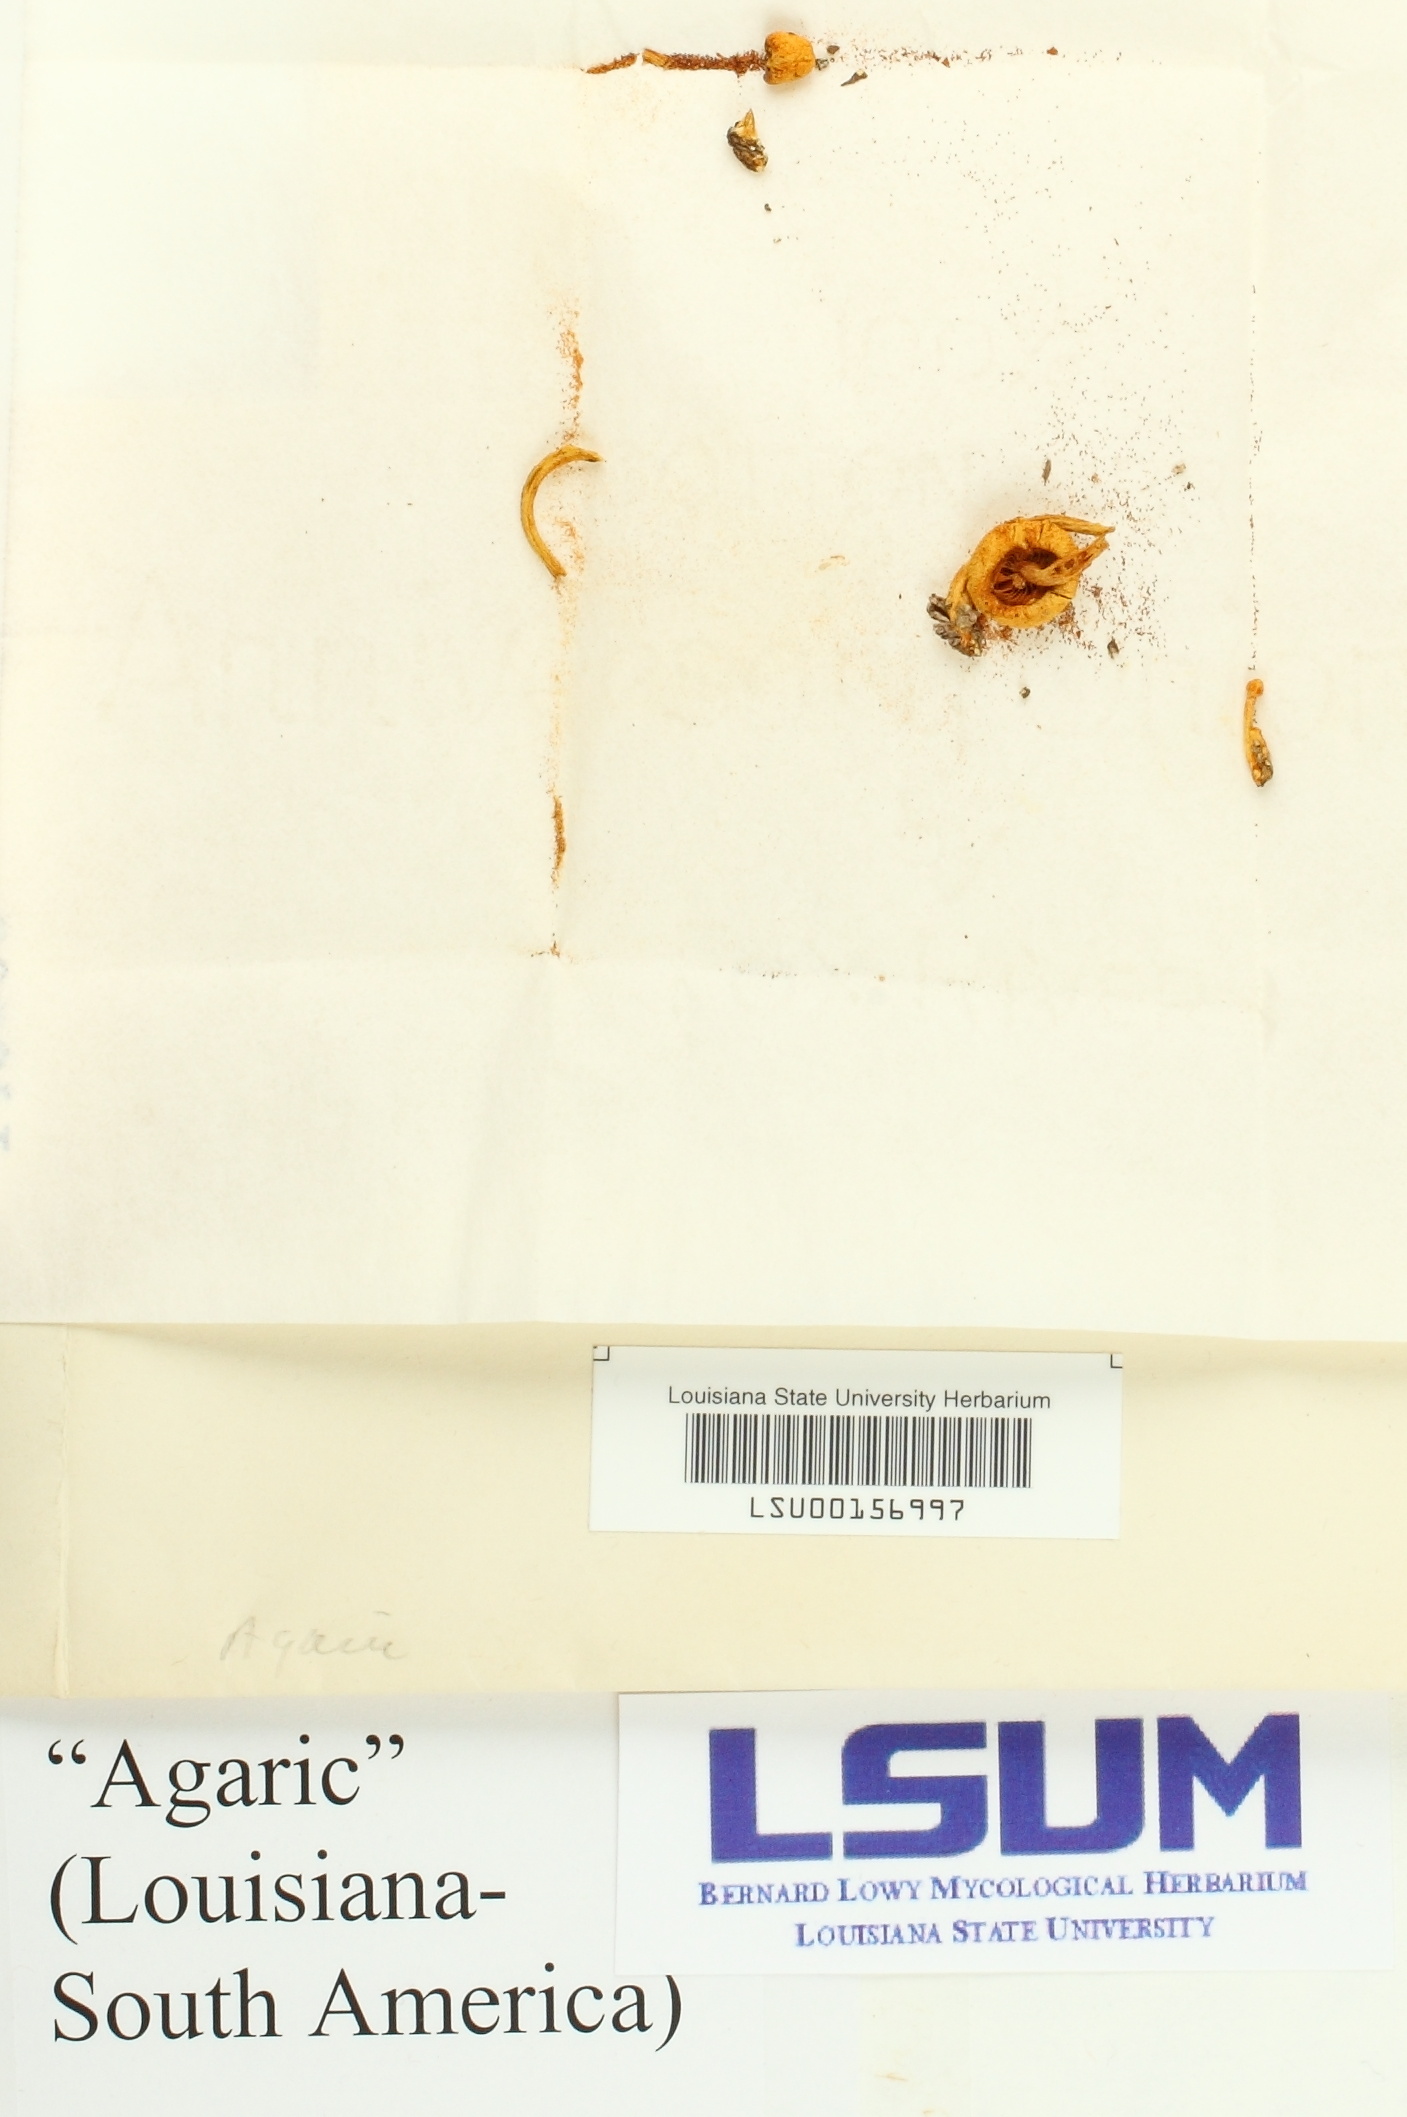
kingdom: Fungi
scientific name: Fungi
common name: Fungi
